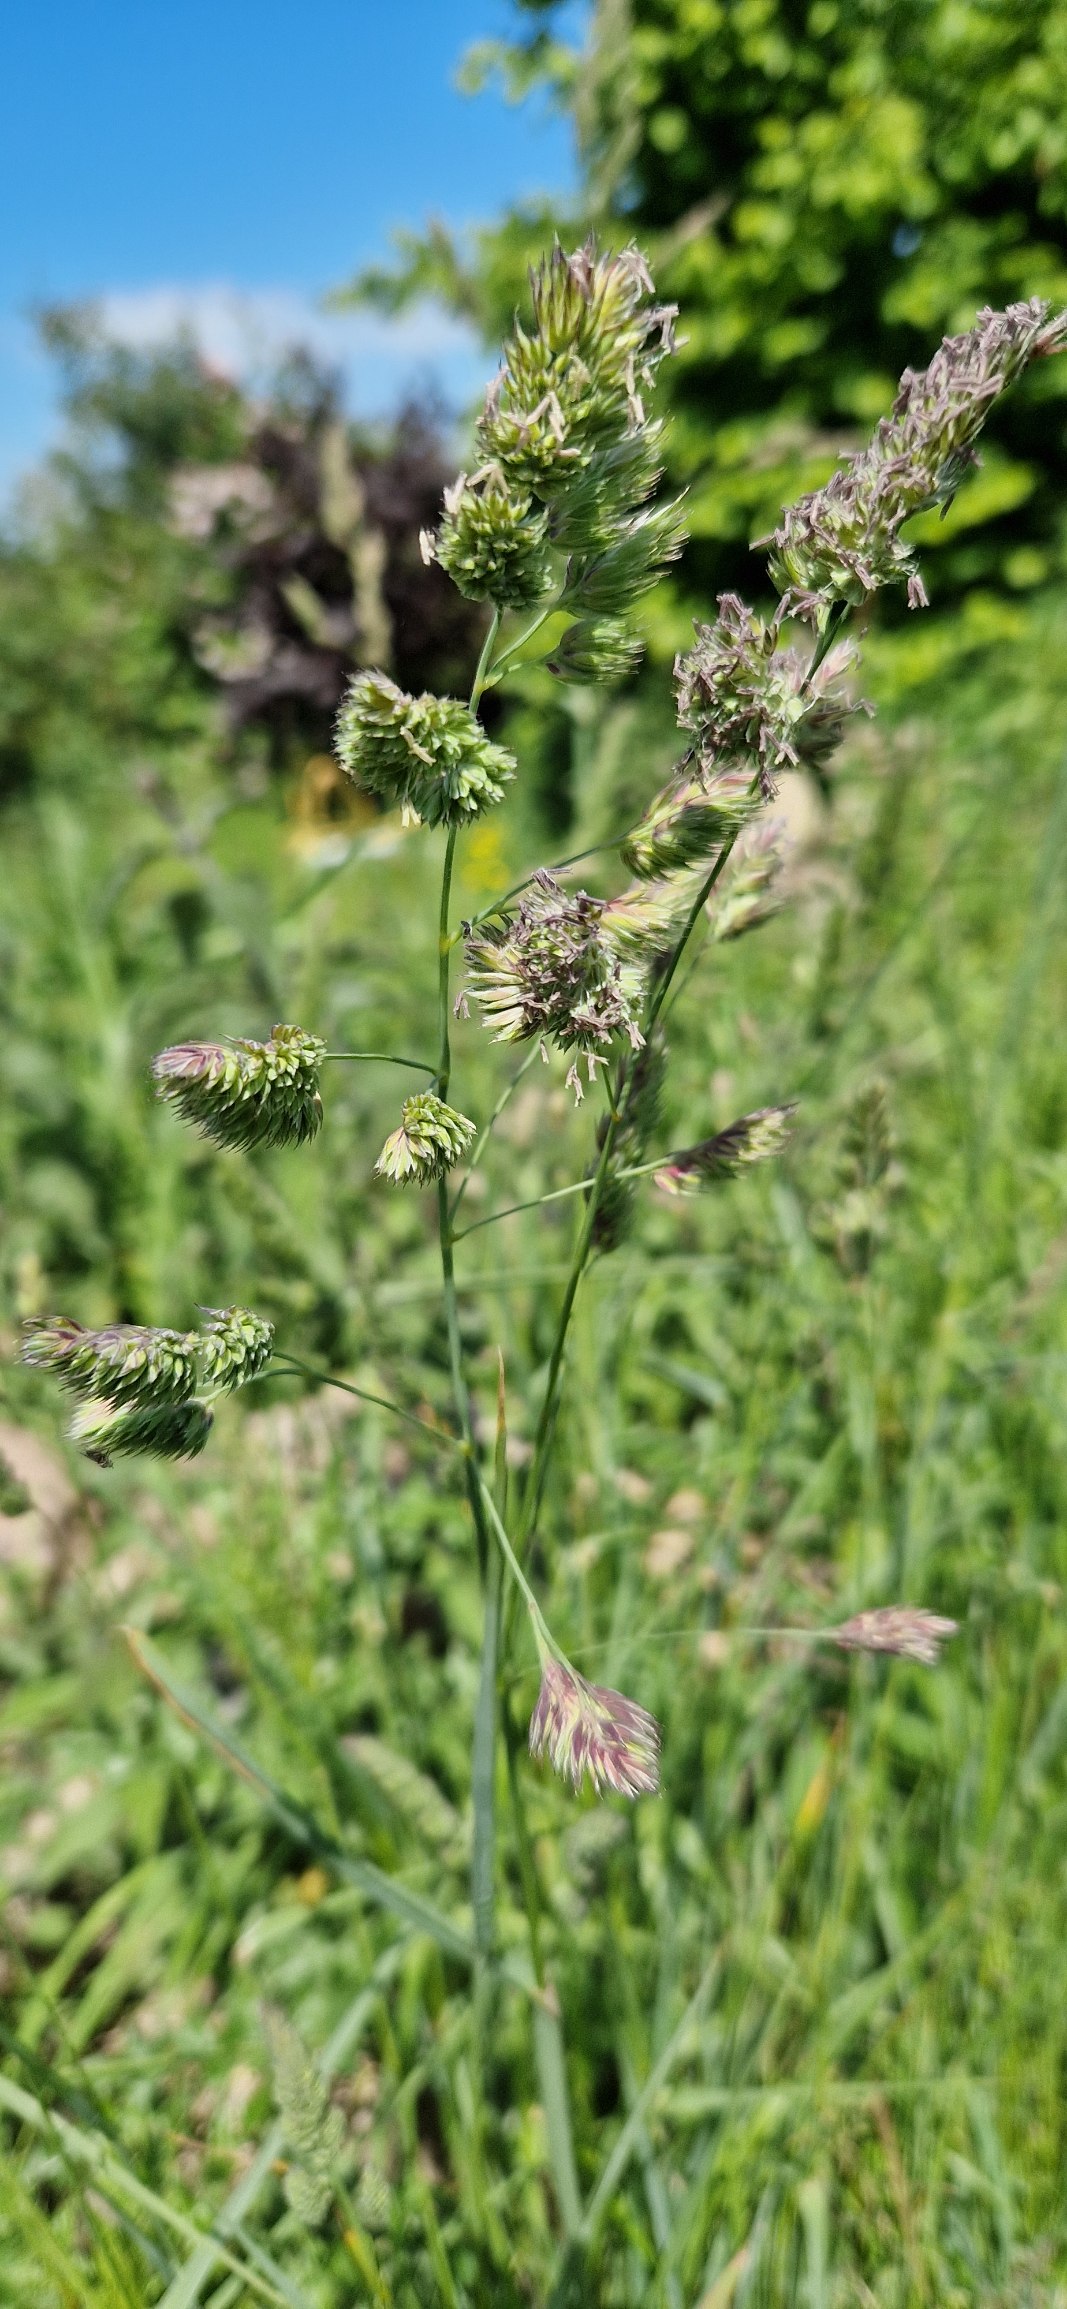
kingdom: Plantae
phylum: Tracheophyta
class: Liliopsida
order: Poales
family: Poaceae
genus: Dactylis
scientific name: Dactylis glomerata
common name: Almindelig hundegræs
